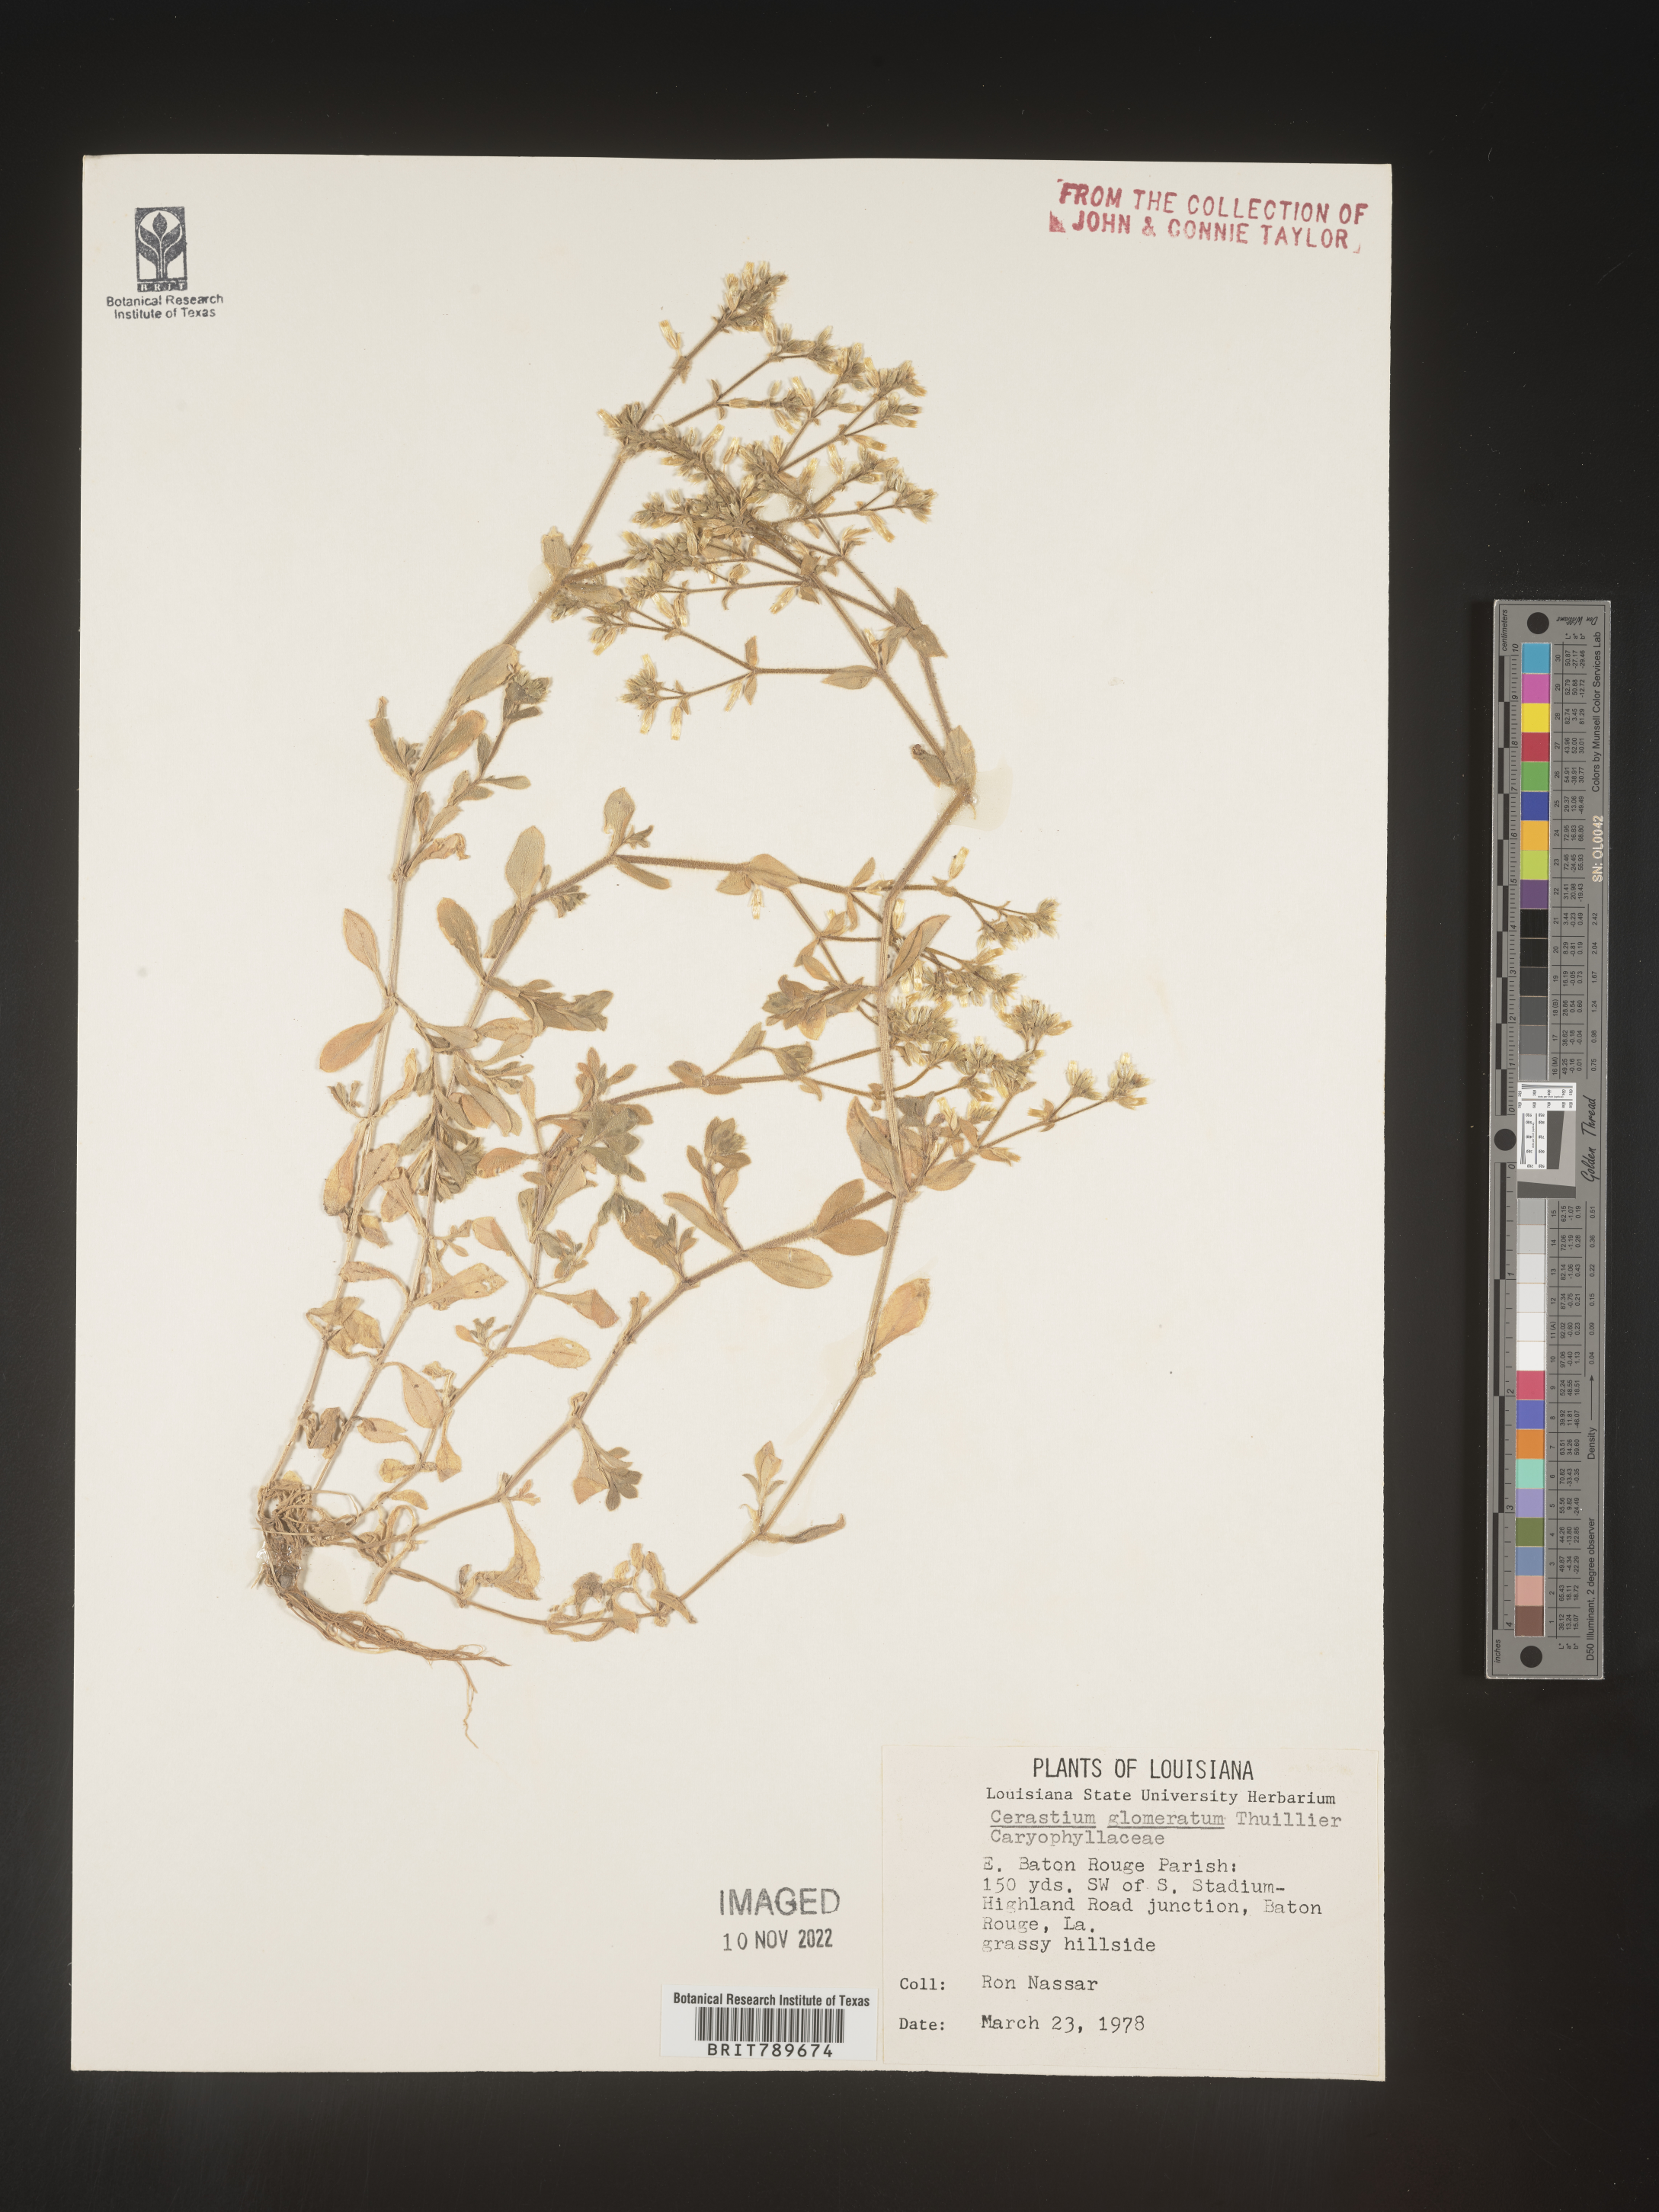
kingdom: Plantae
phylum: Tracheophyta
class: Magnoliopsida
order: Caryophyllales
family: Caryophyllaceae
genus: Cerastium
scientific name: Cerastium glomeratum
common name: Sticky chickweed
